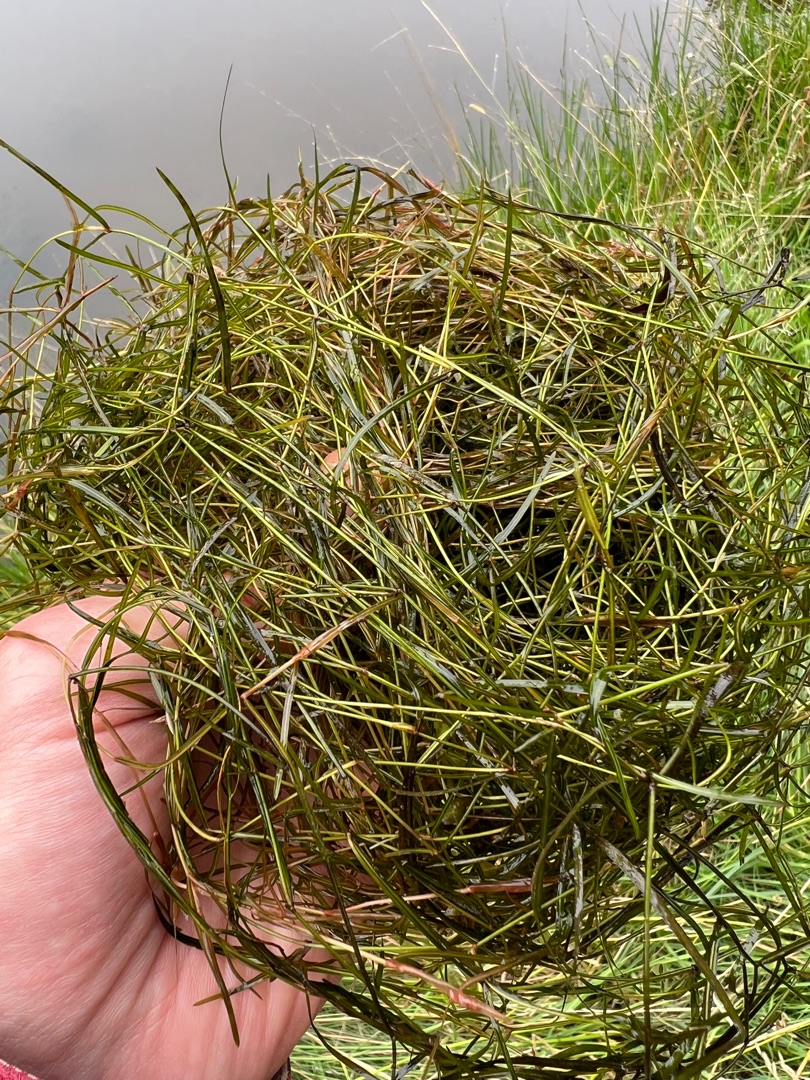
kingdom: Plantae
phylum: Tracheophyta
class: Liliopsida
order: Alismatales
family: Potamogetonaceae
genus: Potamogeton
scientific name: Potamogeton berchtoldii
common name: Liden vandaks
